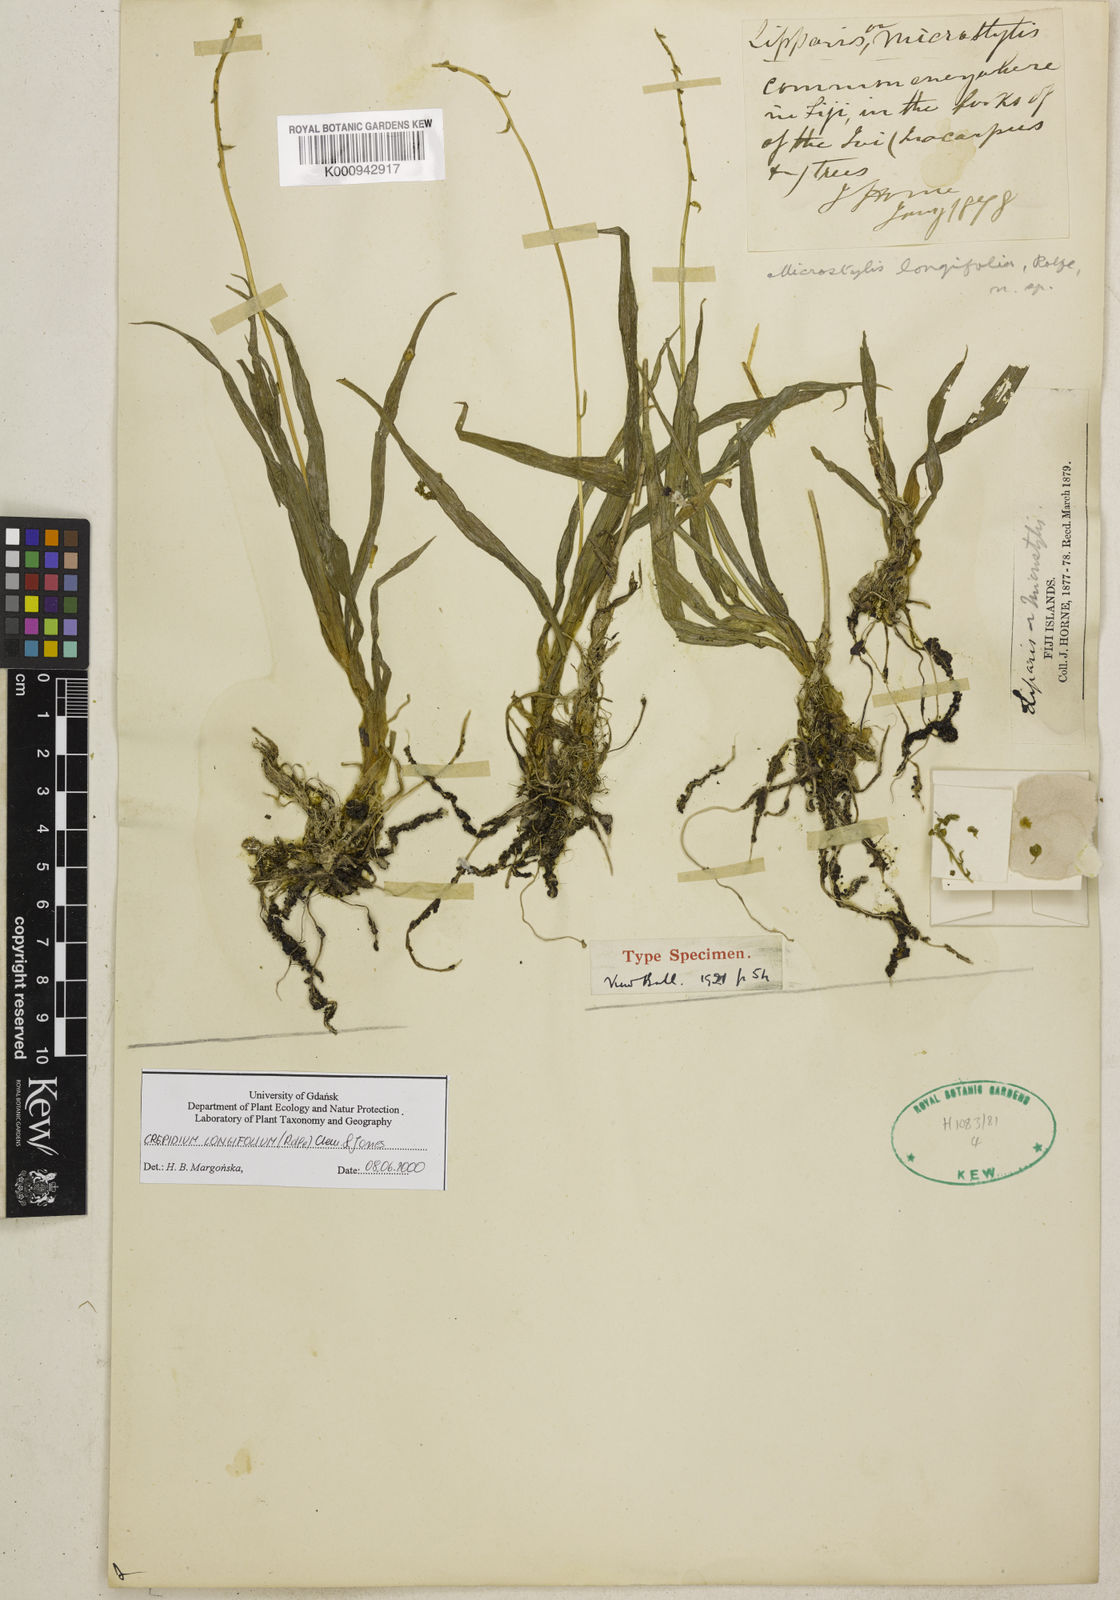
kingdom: Plantae
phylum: Tracheophyta
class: Liliopsida
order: Asparagales
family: Orchidaceae
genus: Crepidium
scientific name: Crepidium longifolium
